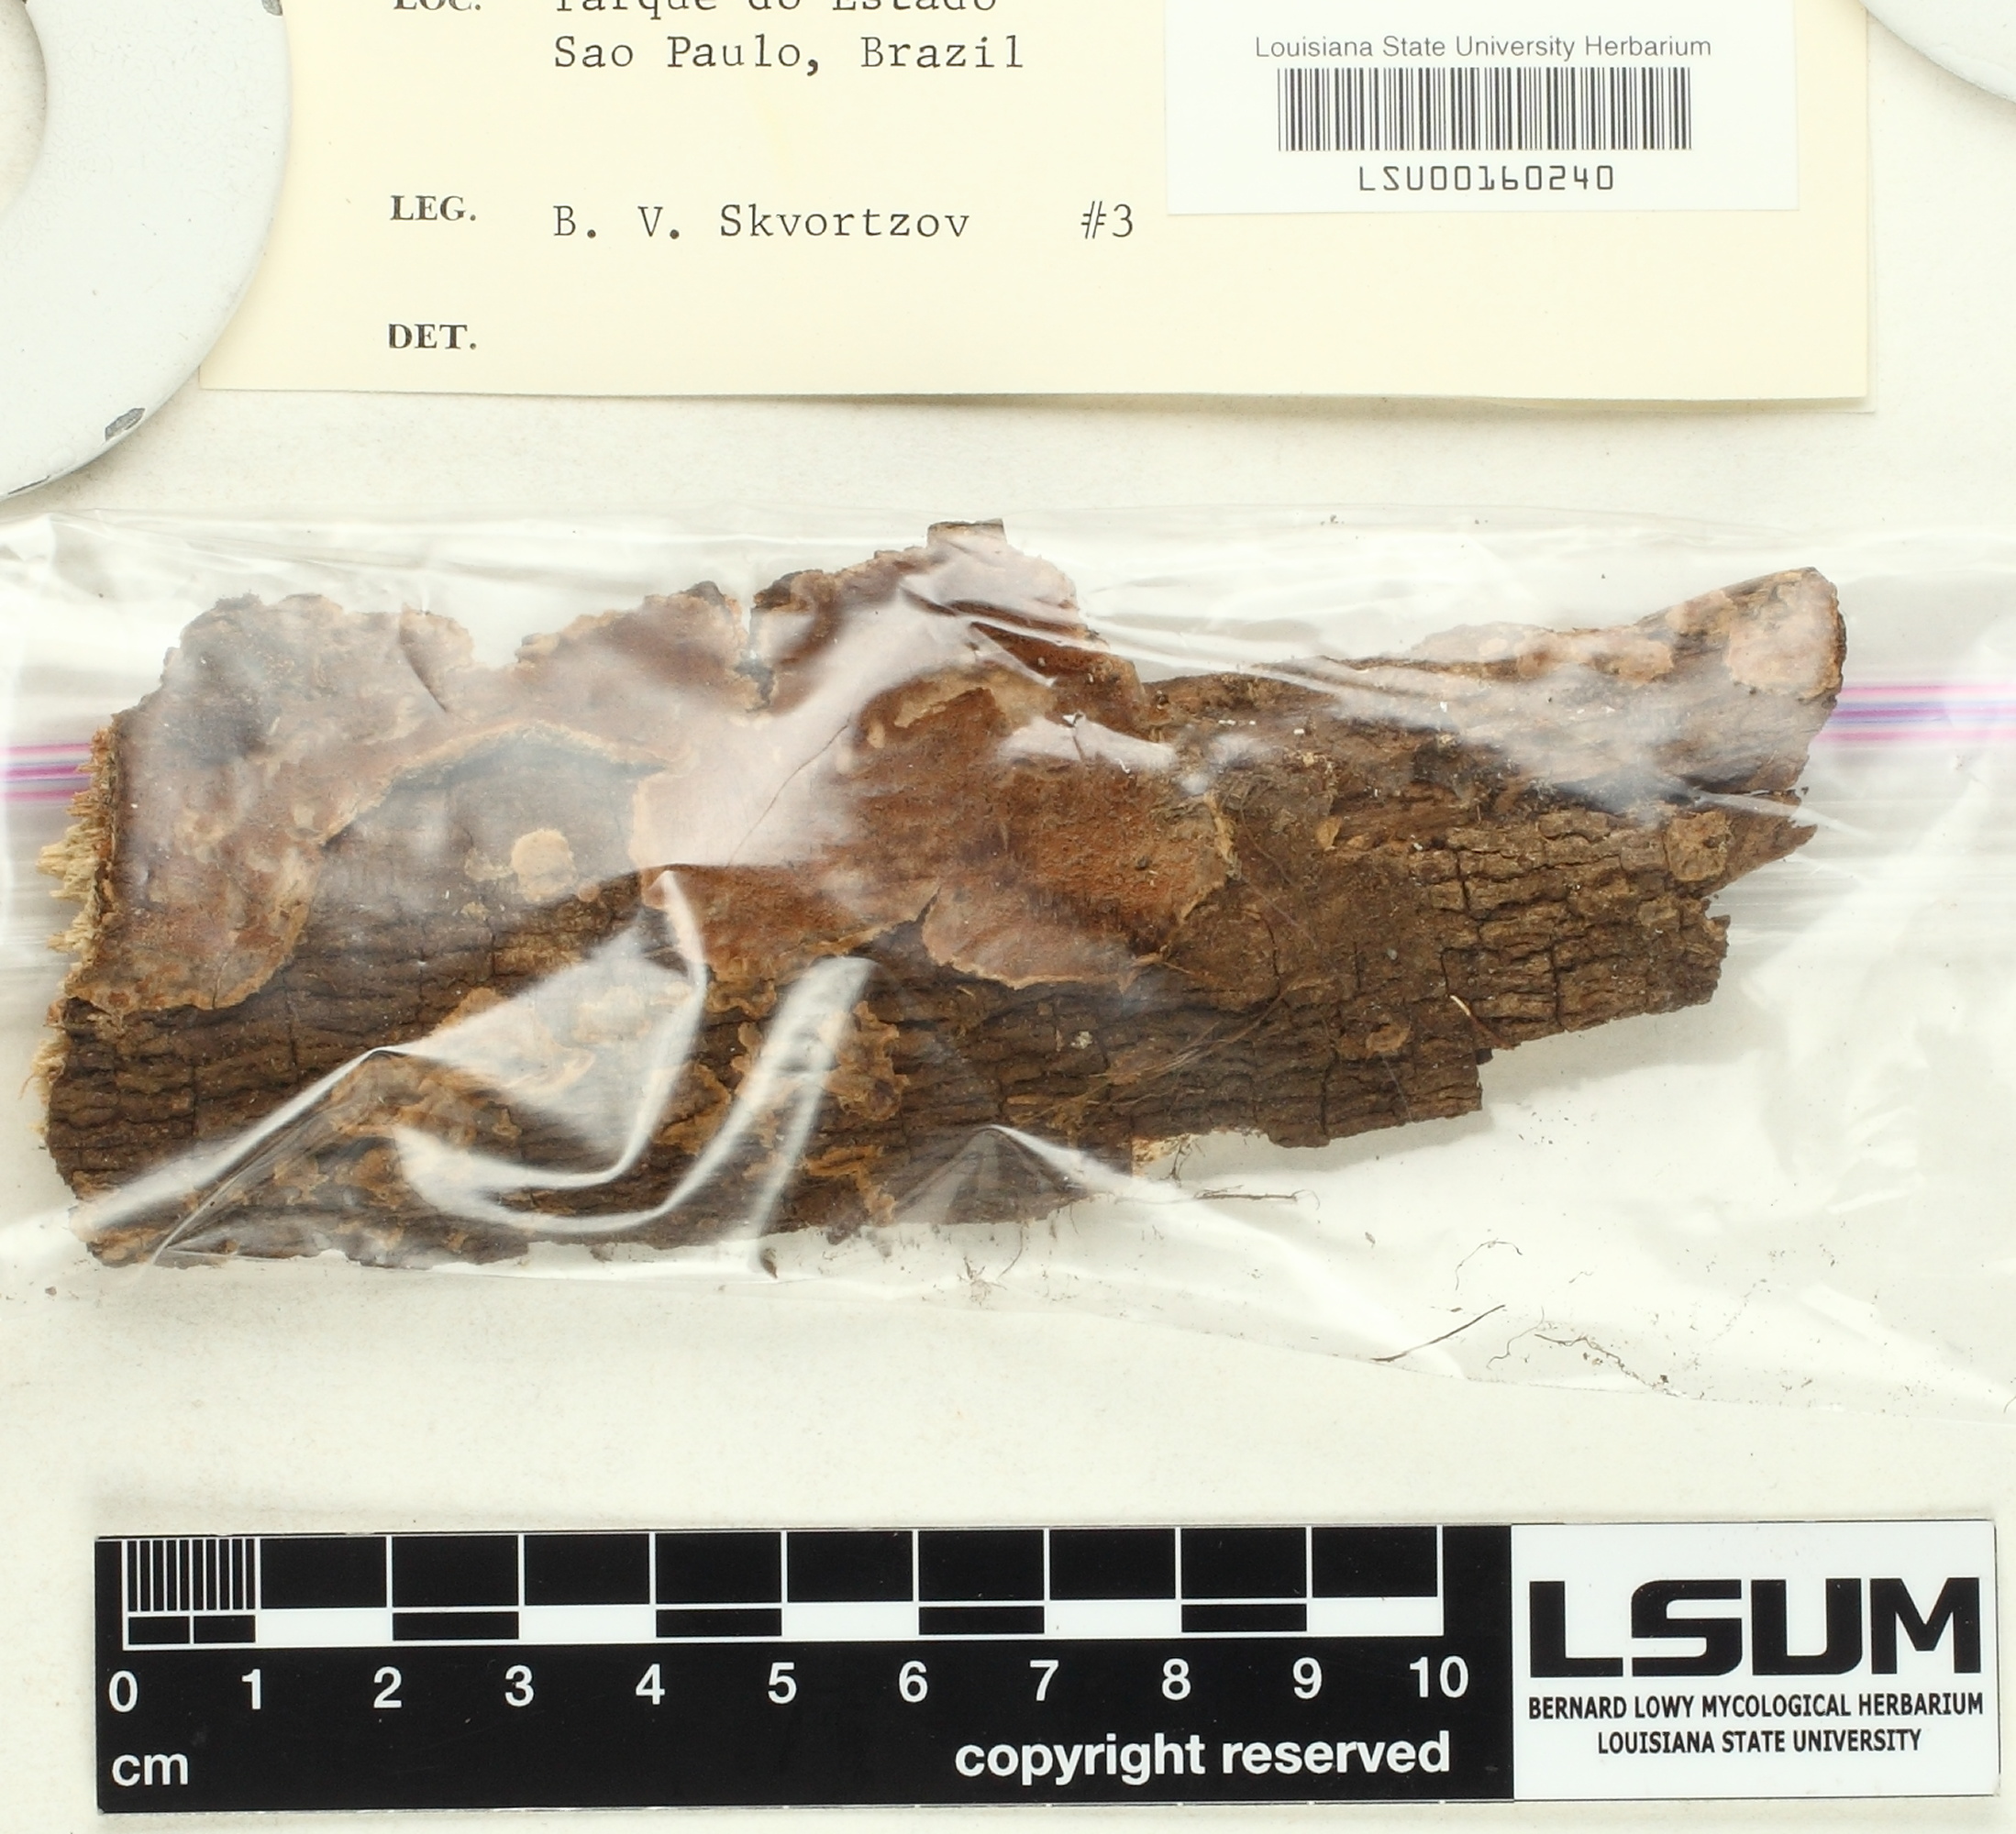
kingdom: Fungi
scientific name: Fungi
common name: Fungi
